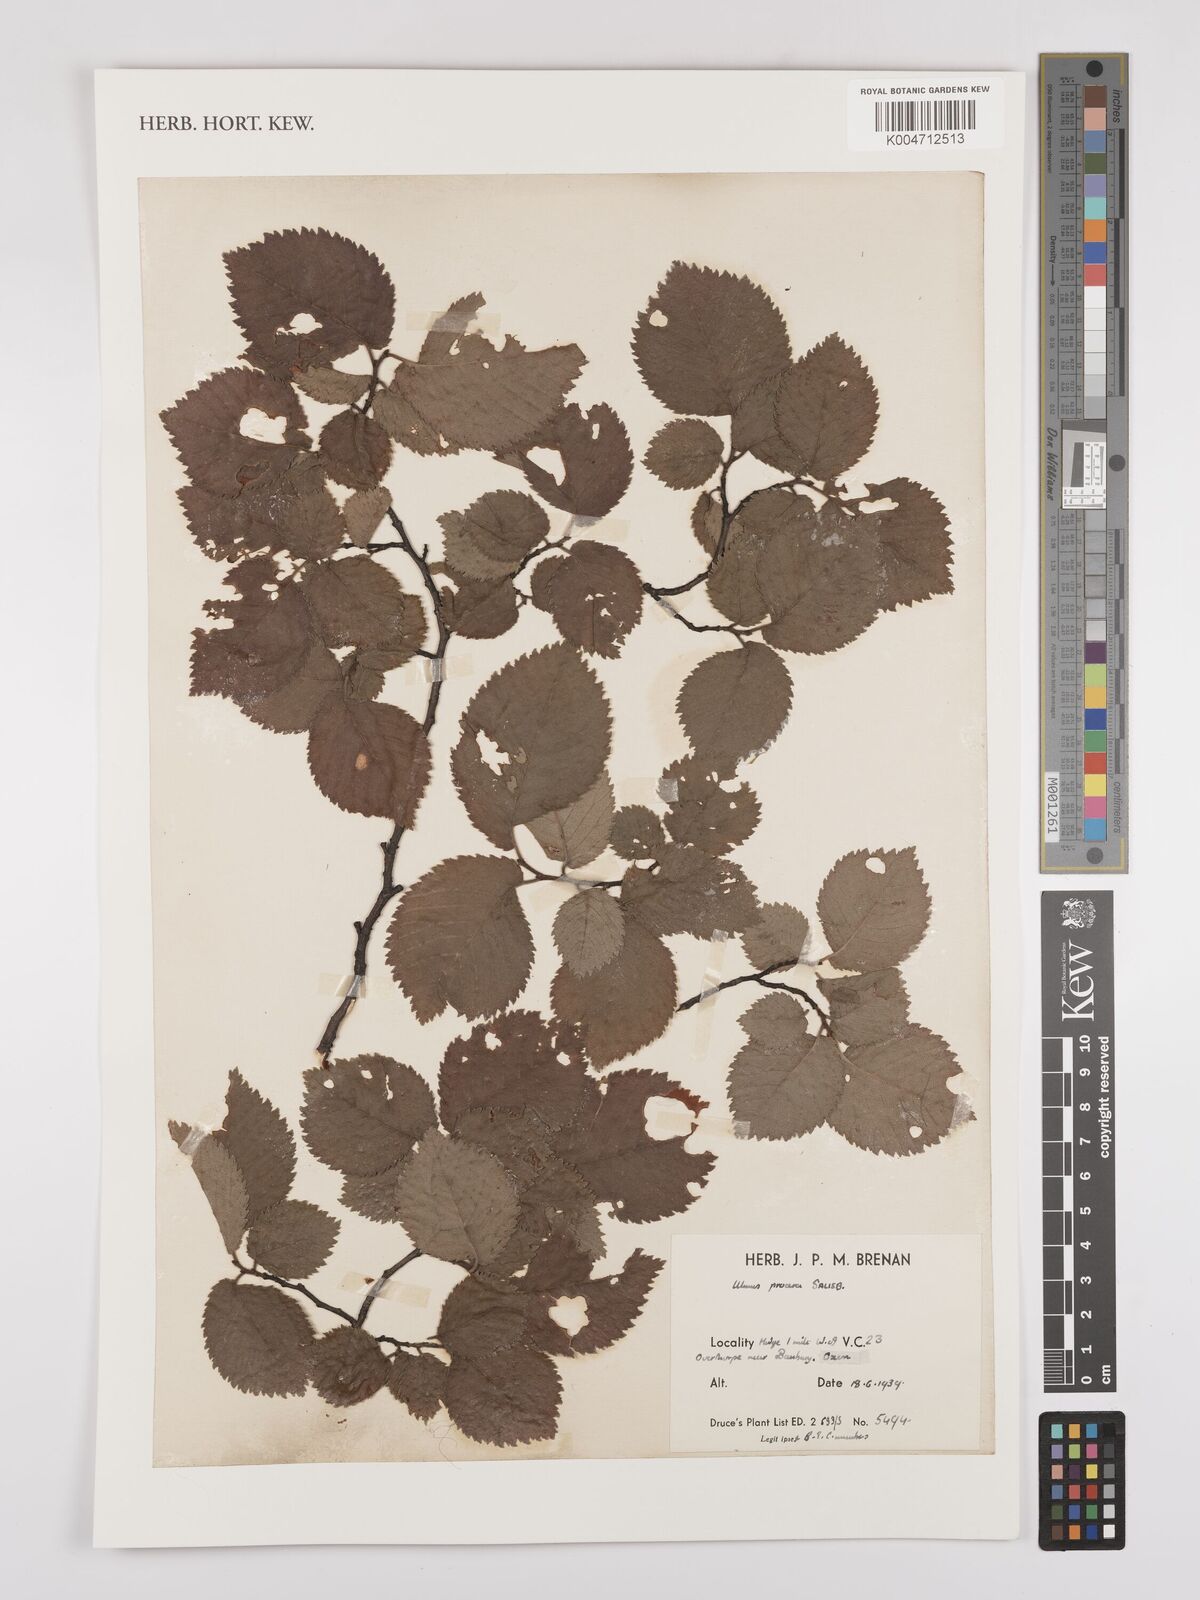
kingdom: Plantae
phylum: Tracheophyta
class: Magnoliopsida
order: Rosales
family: Ulmaceae
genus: Ulmus
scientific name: Ulmus minor
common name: Small-leaved elm
